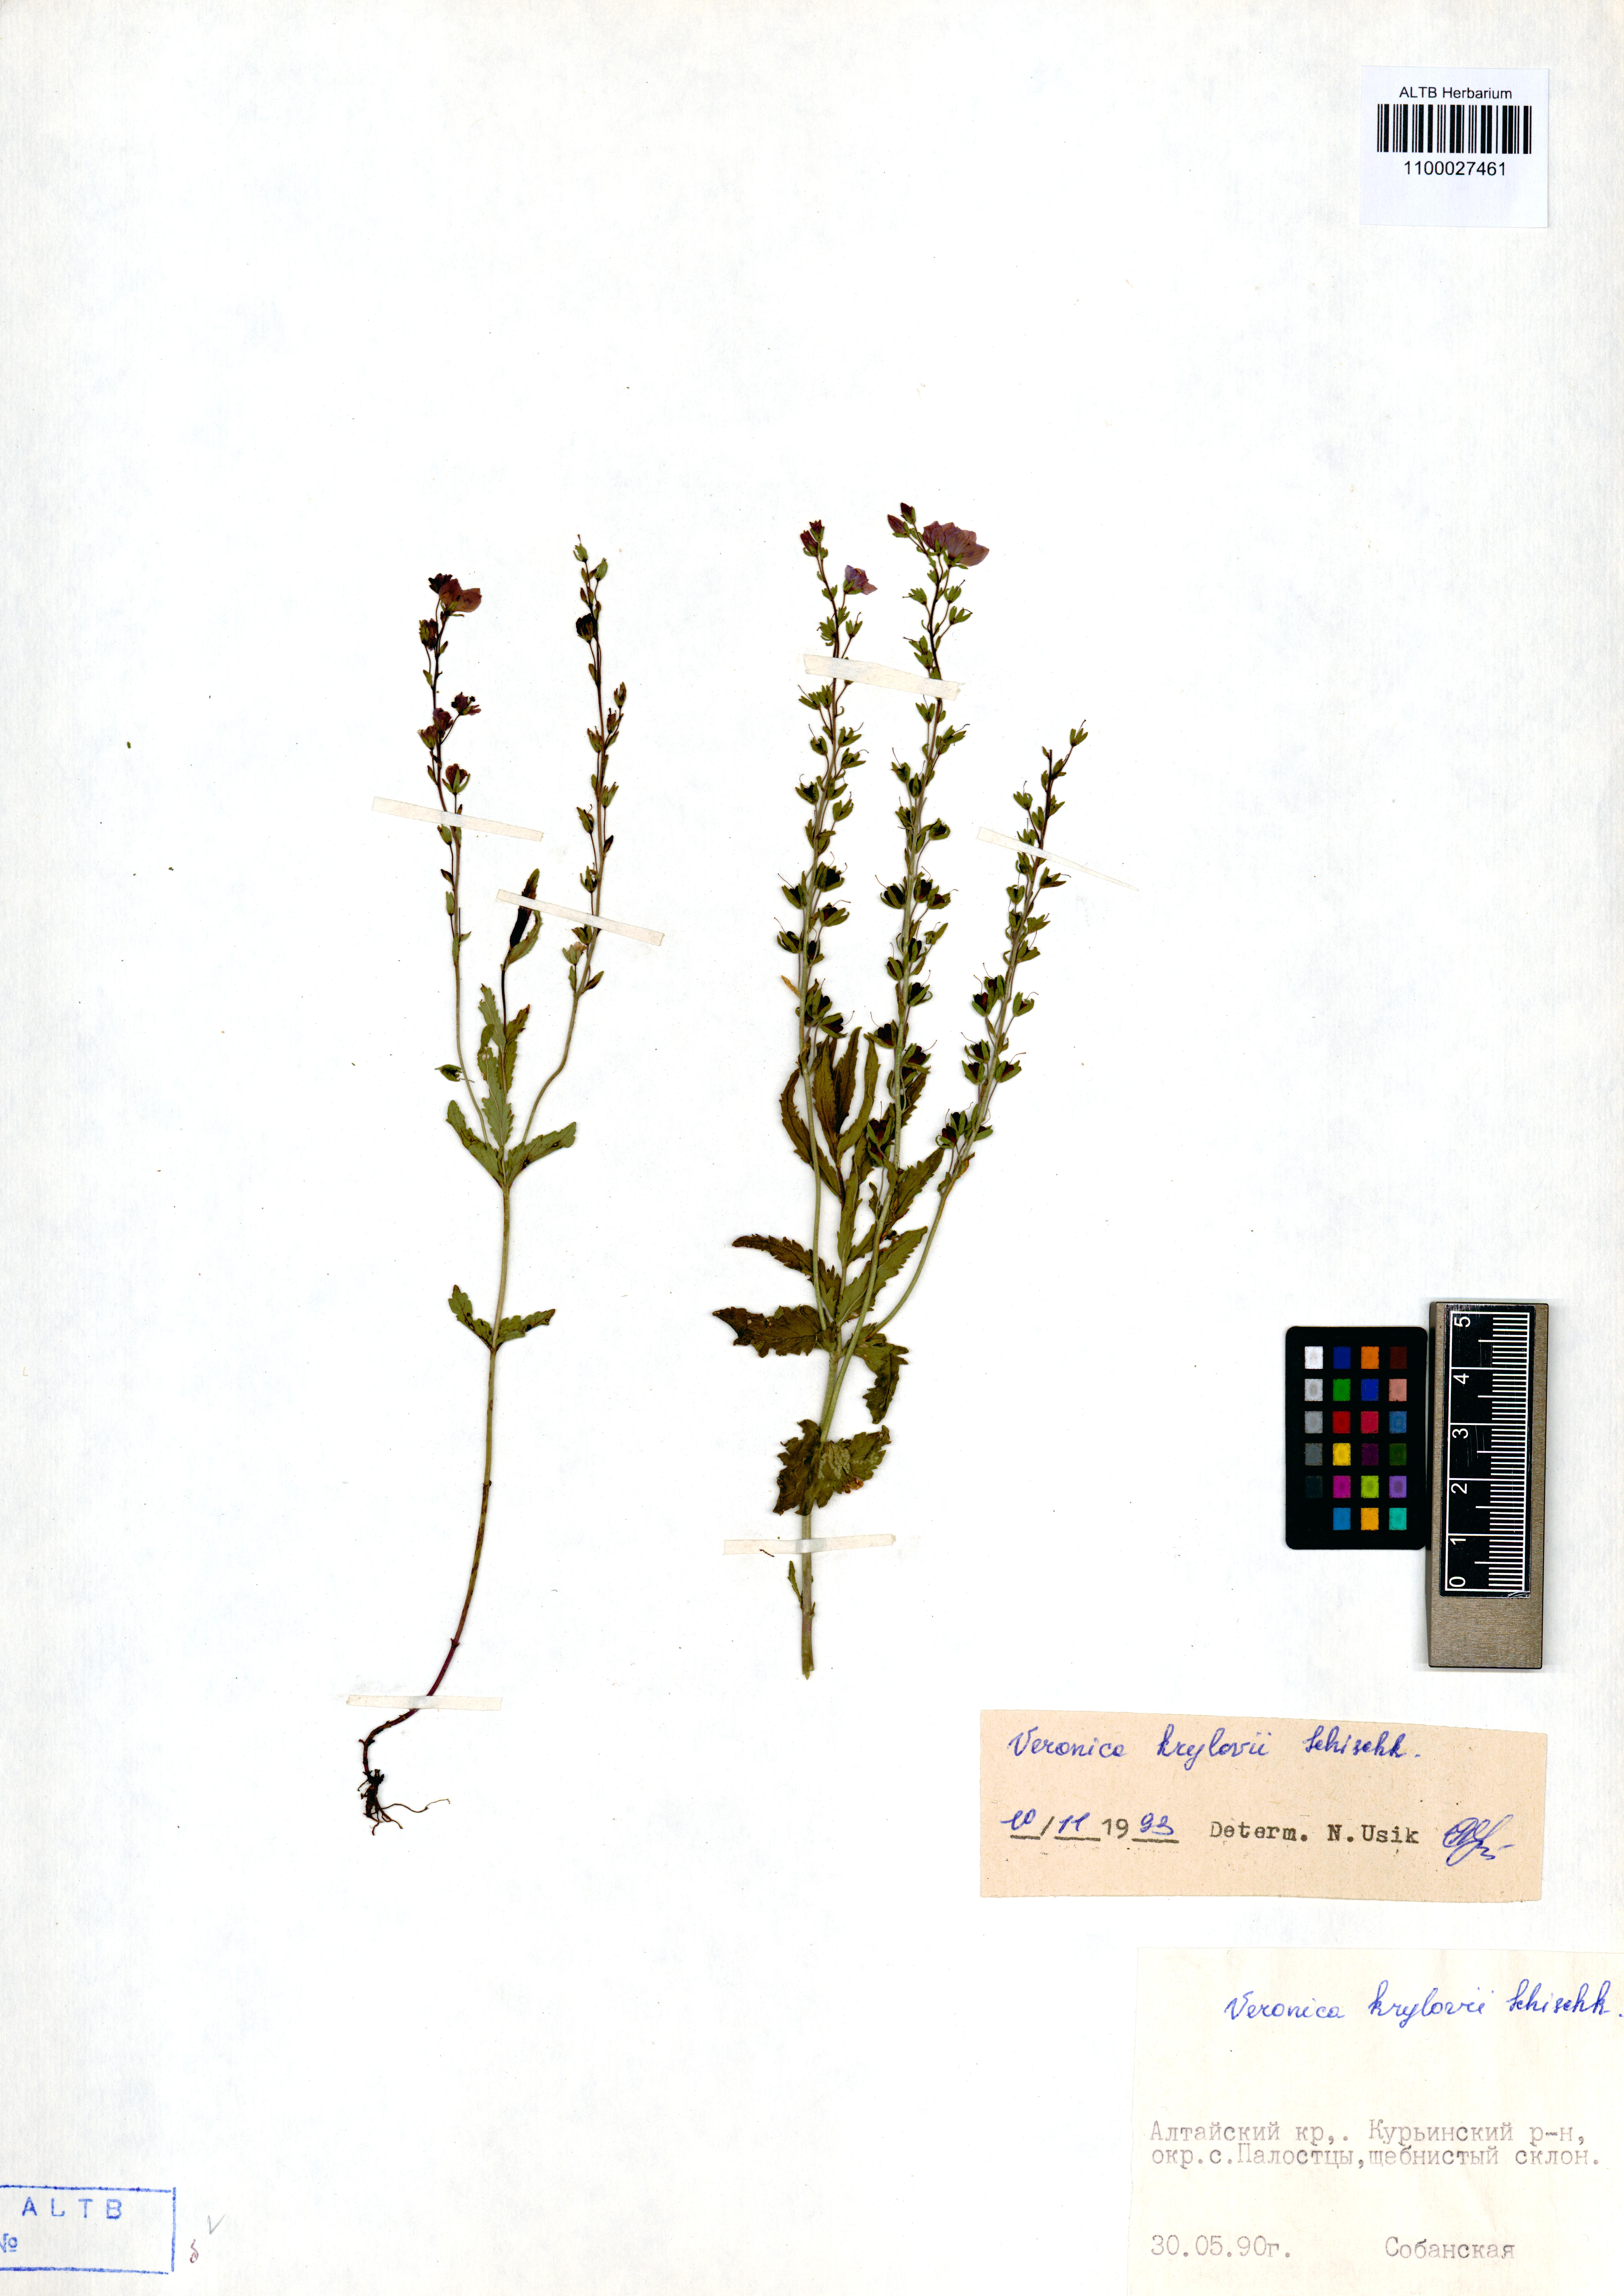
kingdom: Plantae
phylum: Tracheophyta
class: Magnoliopsida
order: Lamiales
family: Plantaginaceae
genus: Veronica
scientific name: Veronica krylovii
